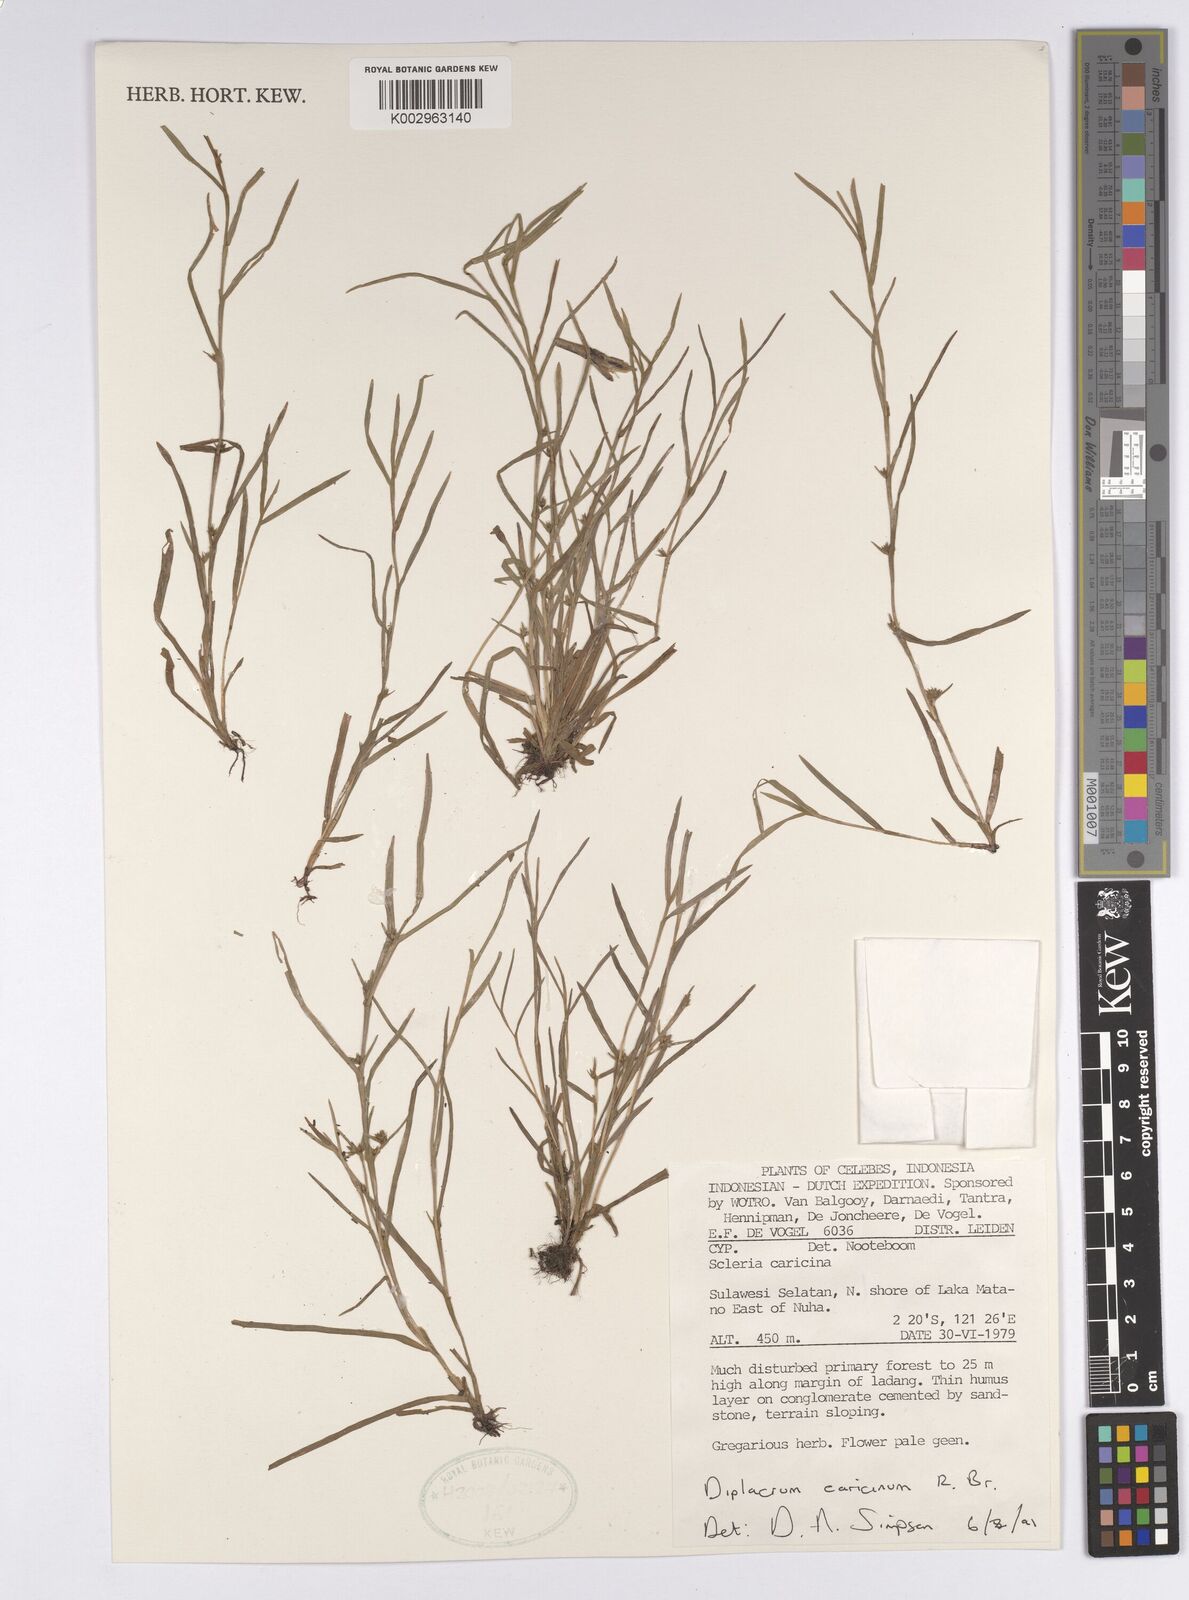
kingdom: Plantae
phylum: Tracheophyta
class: Liliopsida
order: Poales
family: Cyperaceae
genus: Diplacrum
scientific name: Diplacrum caricinum
